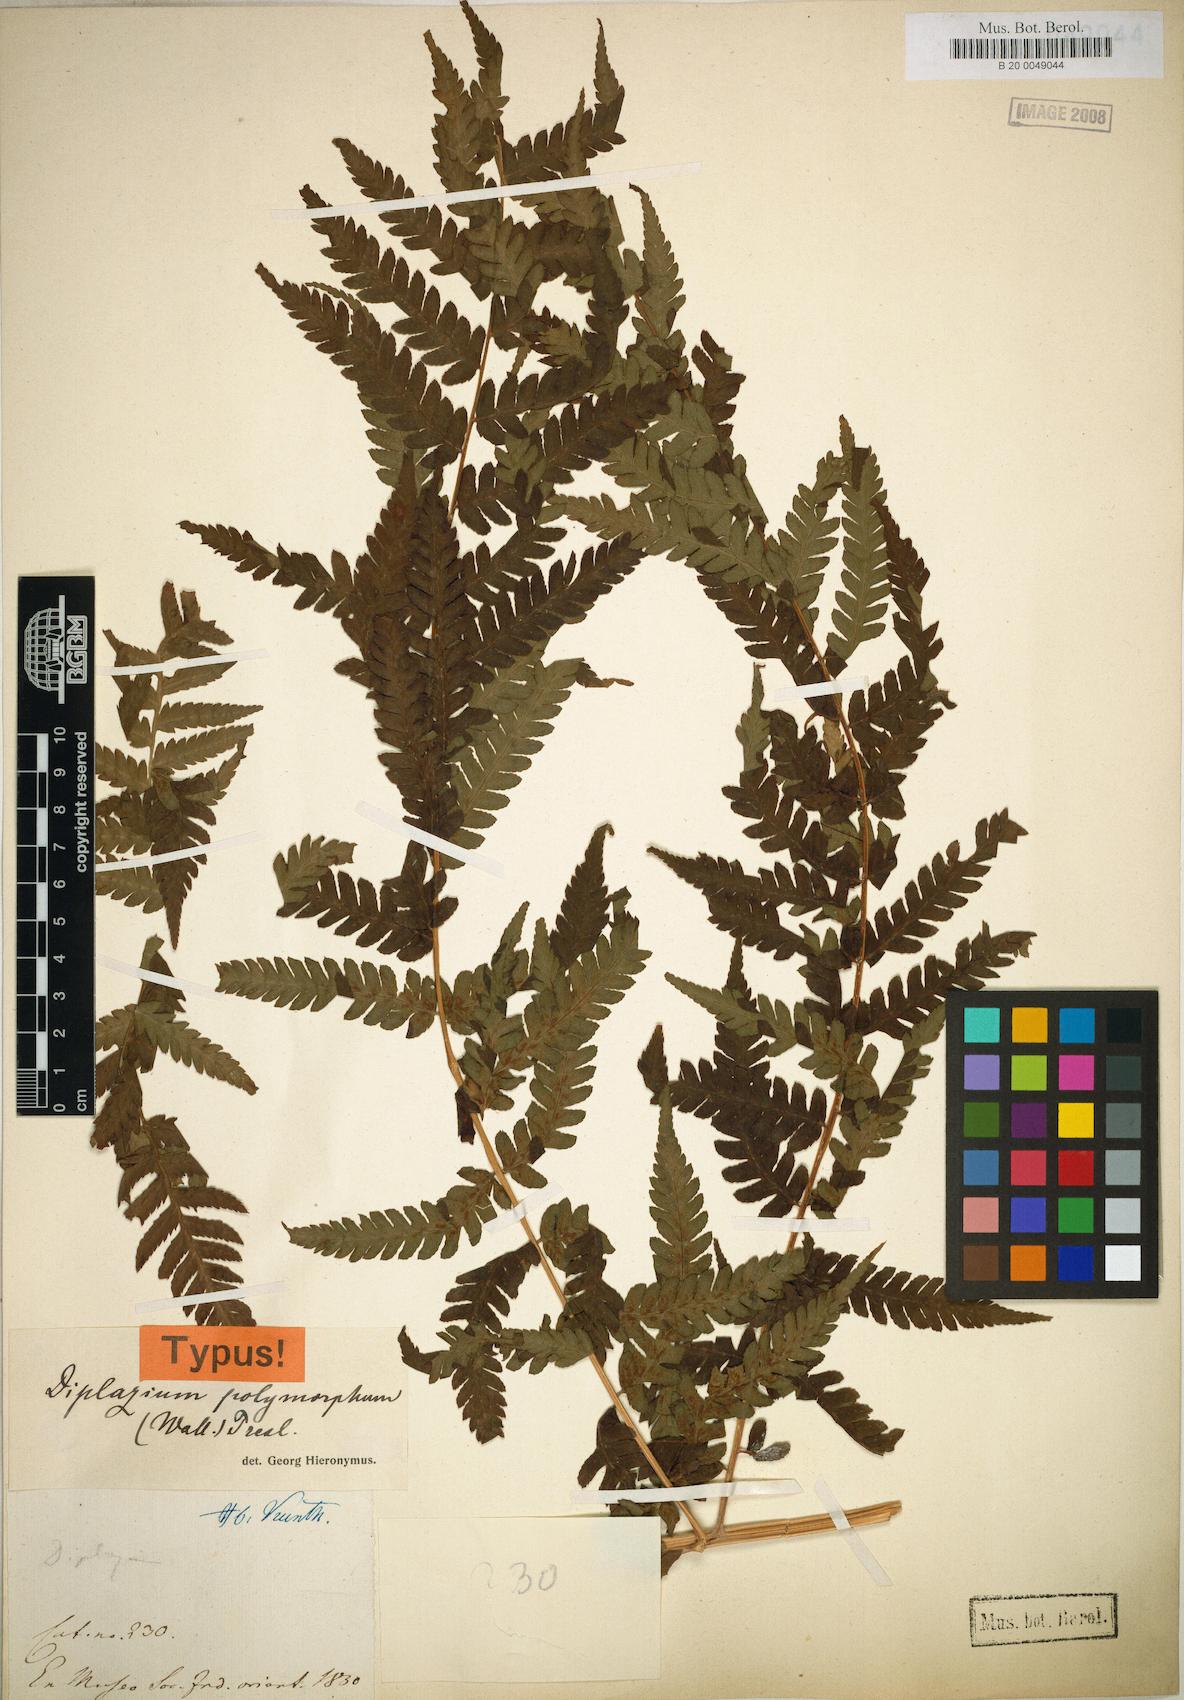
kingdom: Plantae
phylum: Tracheophyta
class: Polypodiopsida
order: Polypodiales
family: Athyriaceae
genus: Diplazium
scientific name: Diplazium maximum
